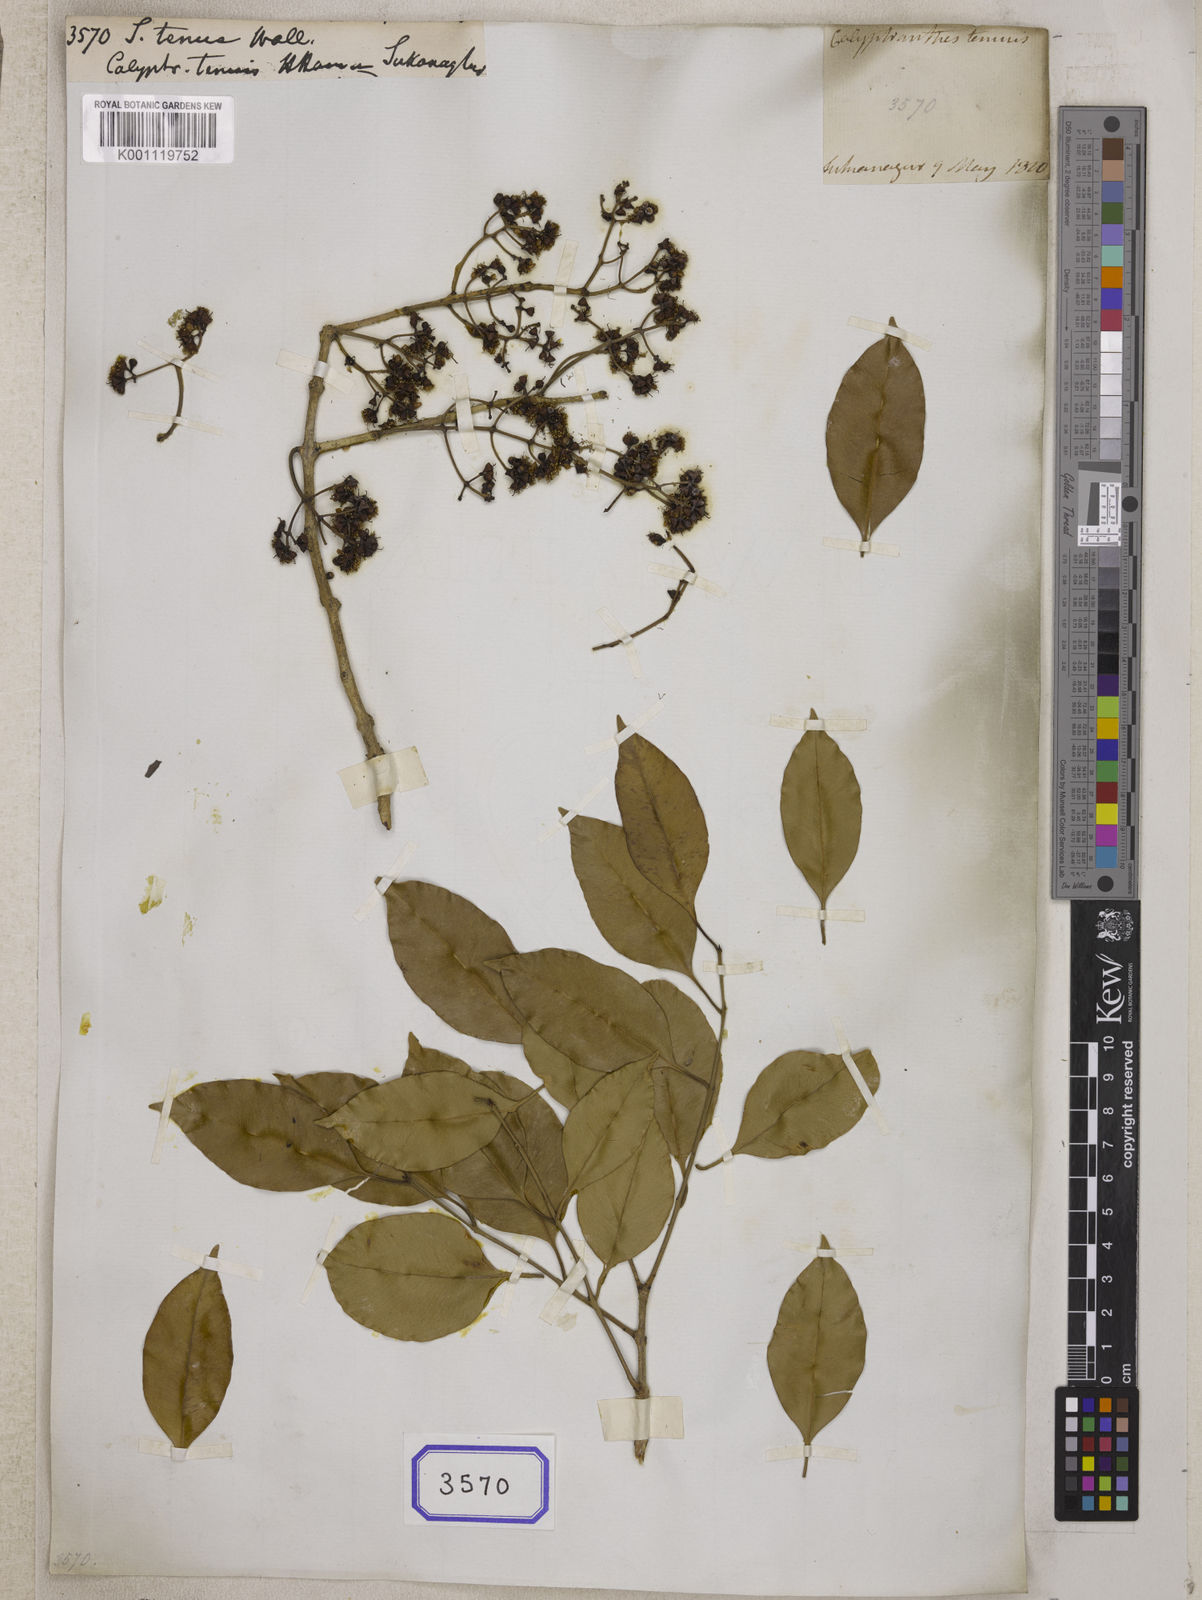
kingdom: Plantae
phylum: Tracheophyta
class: Magnoliopsida
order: Myrtales
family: Myrtaceae
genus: Syzygium
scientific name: Syzygium
